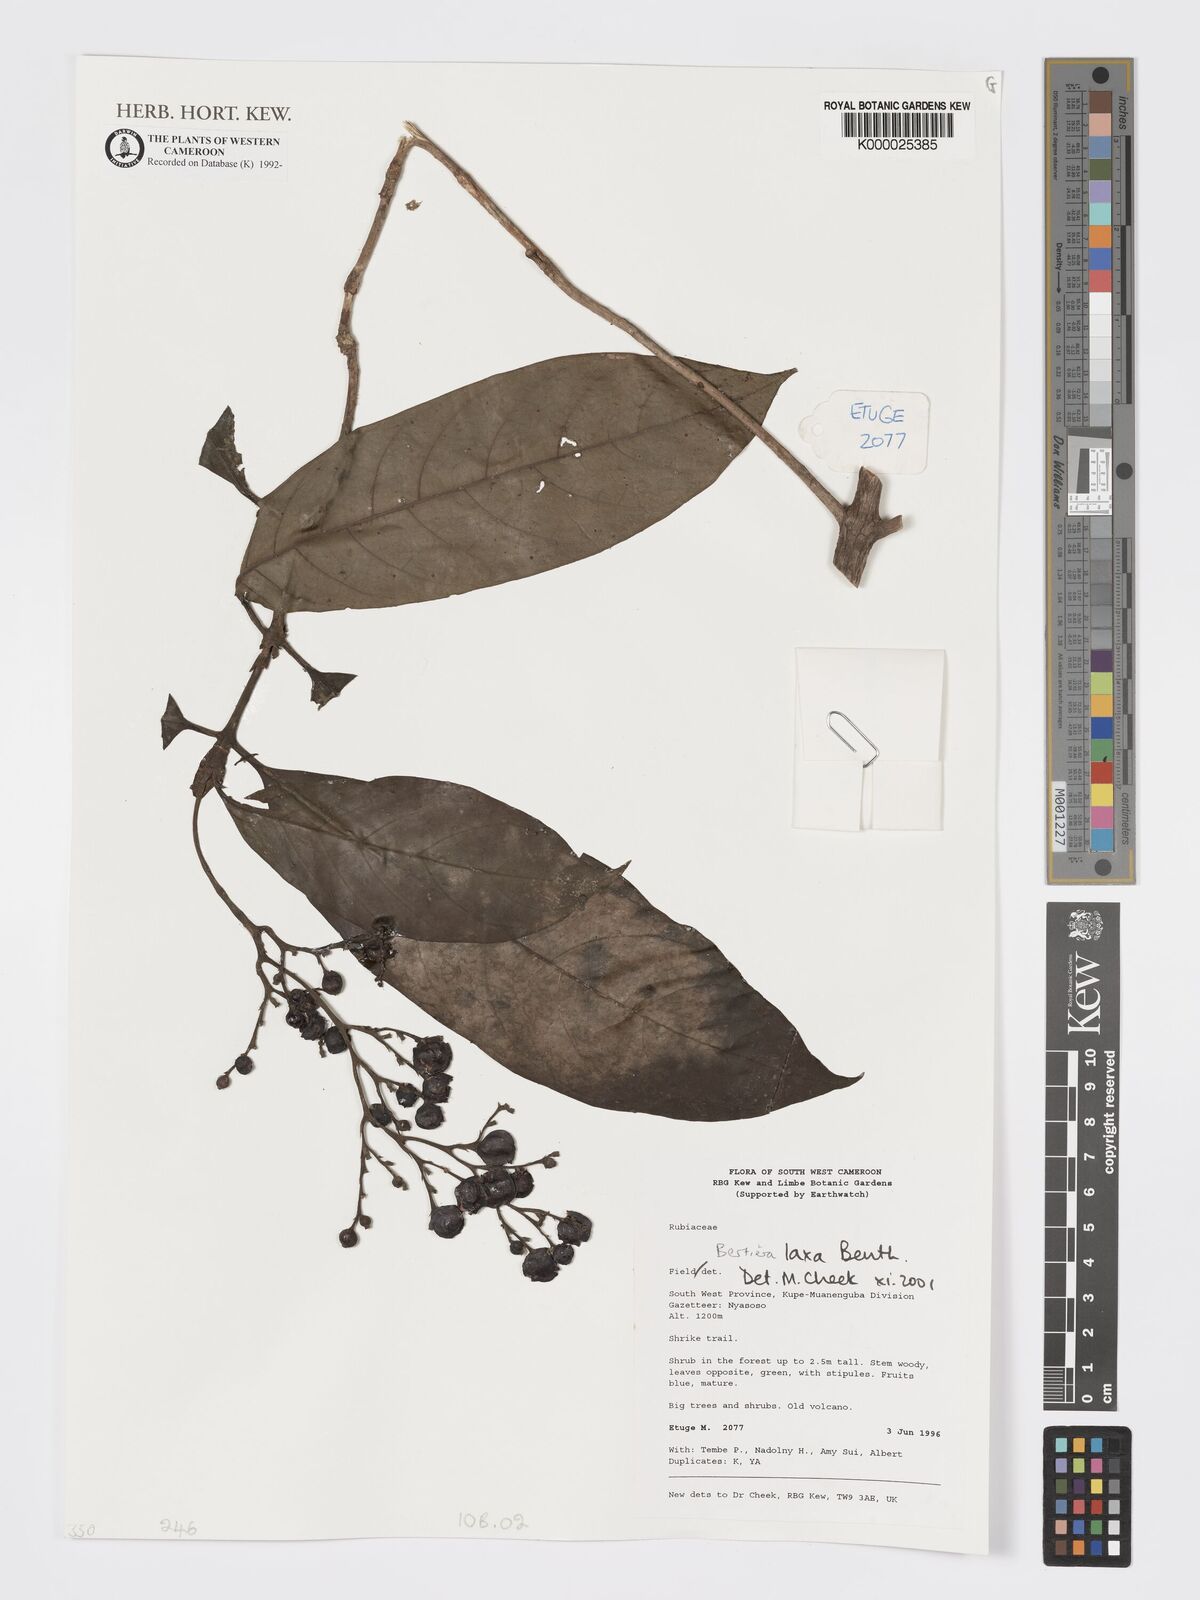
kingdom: Plantae
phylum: Tracheophyta
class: Magnoliopsida
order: Gentianales
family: Rubiaceae
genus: Bertiera
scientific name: Bertiera laxa
